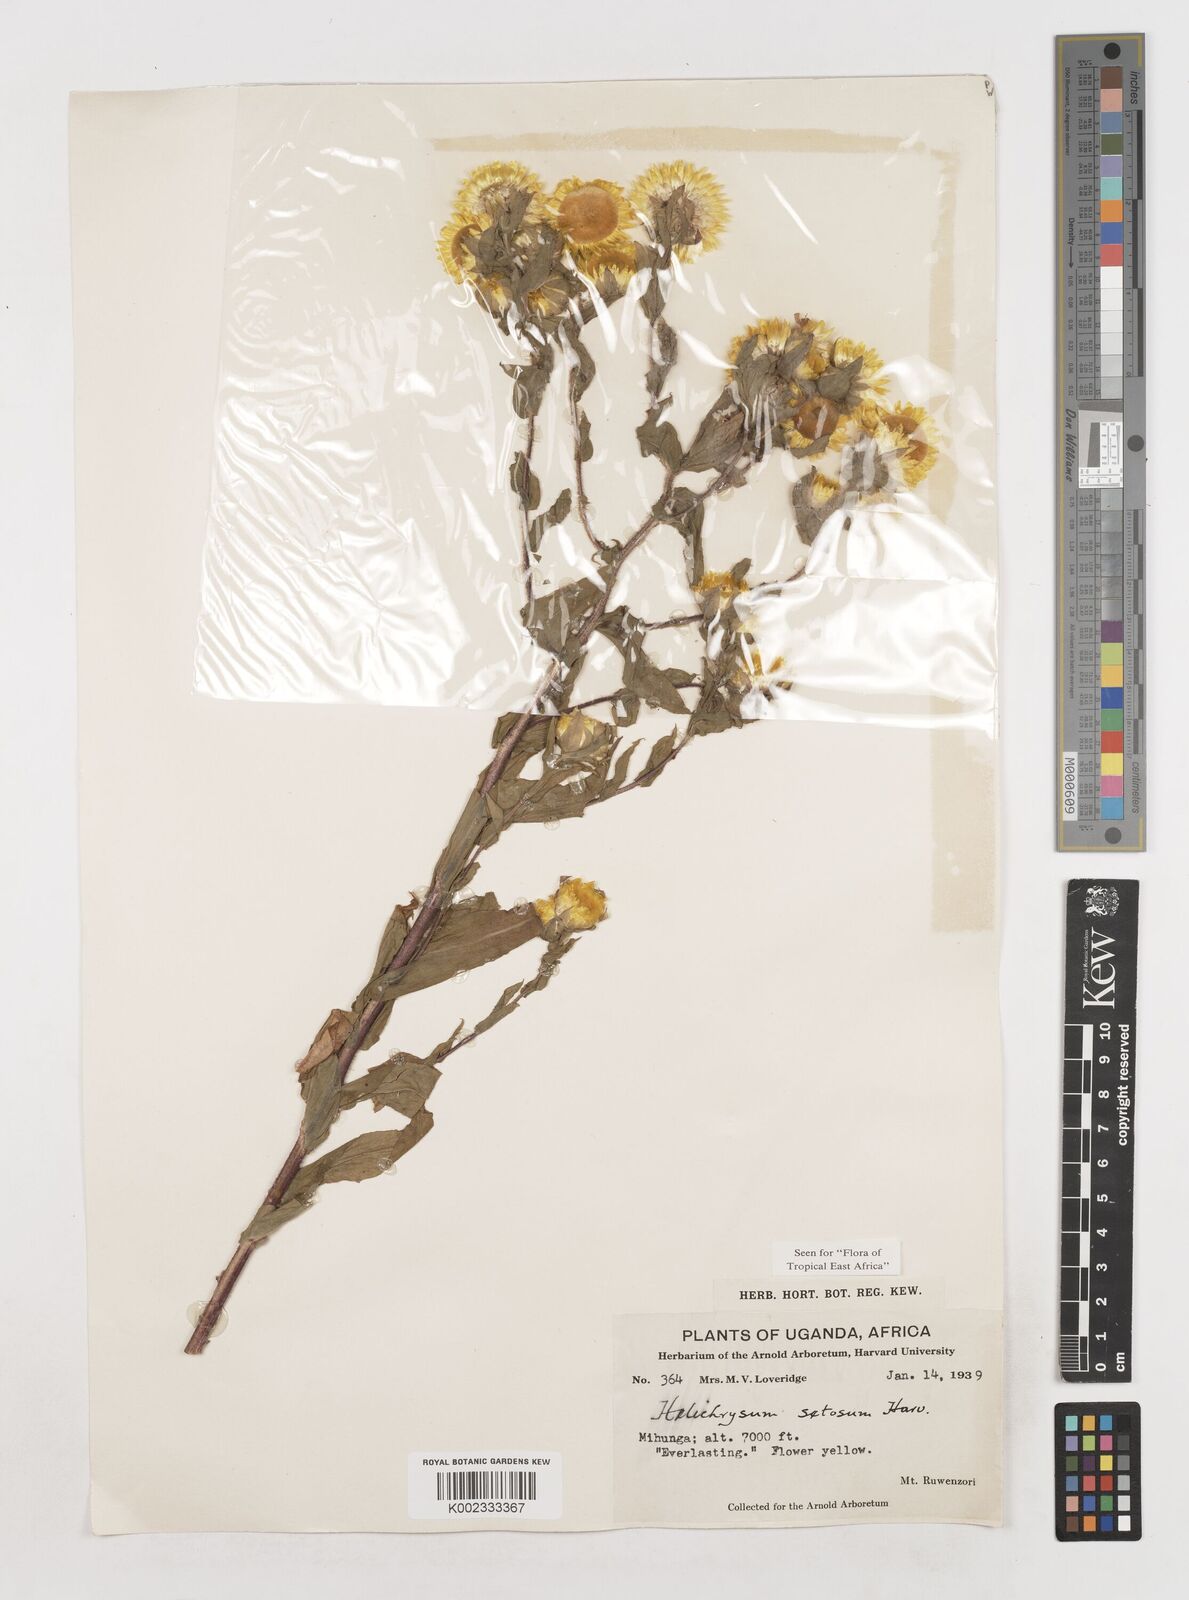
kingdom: Plantae
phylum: Tracheophyta
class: Magnoliopsida
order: Asterales
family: Asteraceae
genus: Helichrysum
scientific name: Helichrysum setosum
